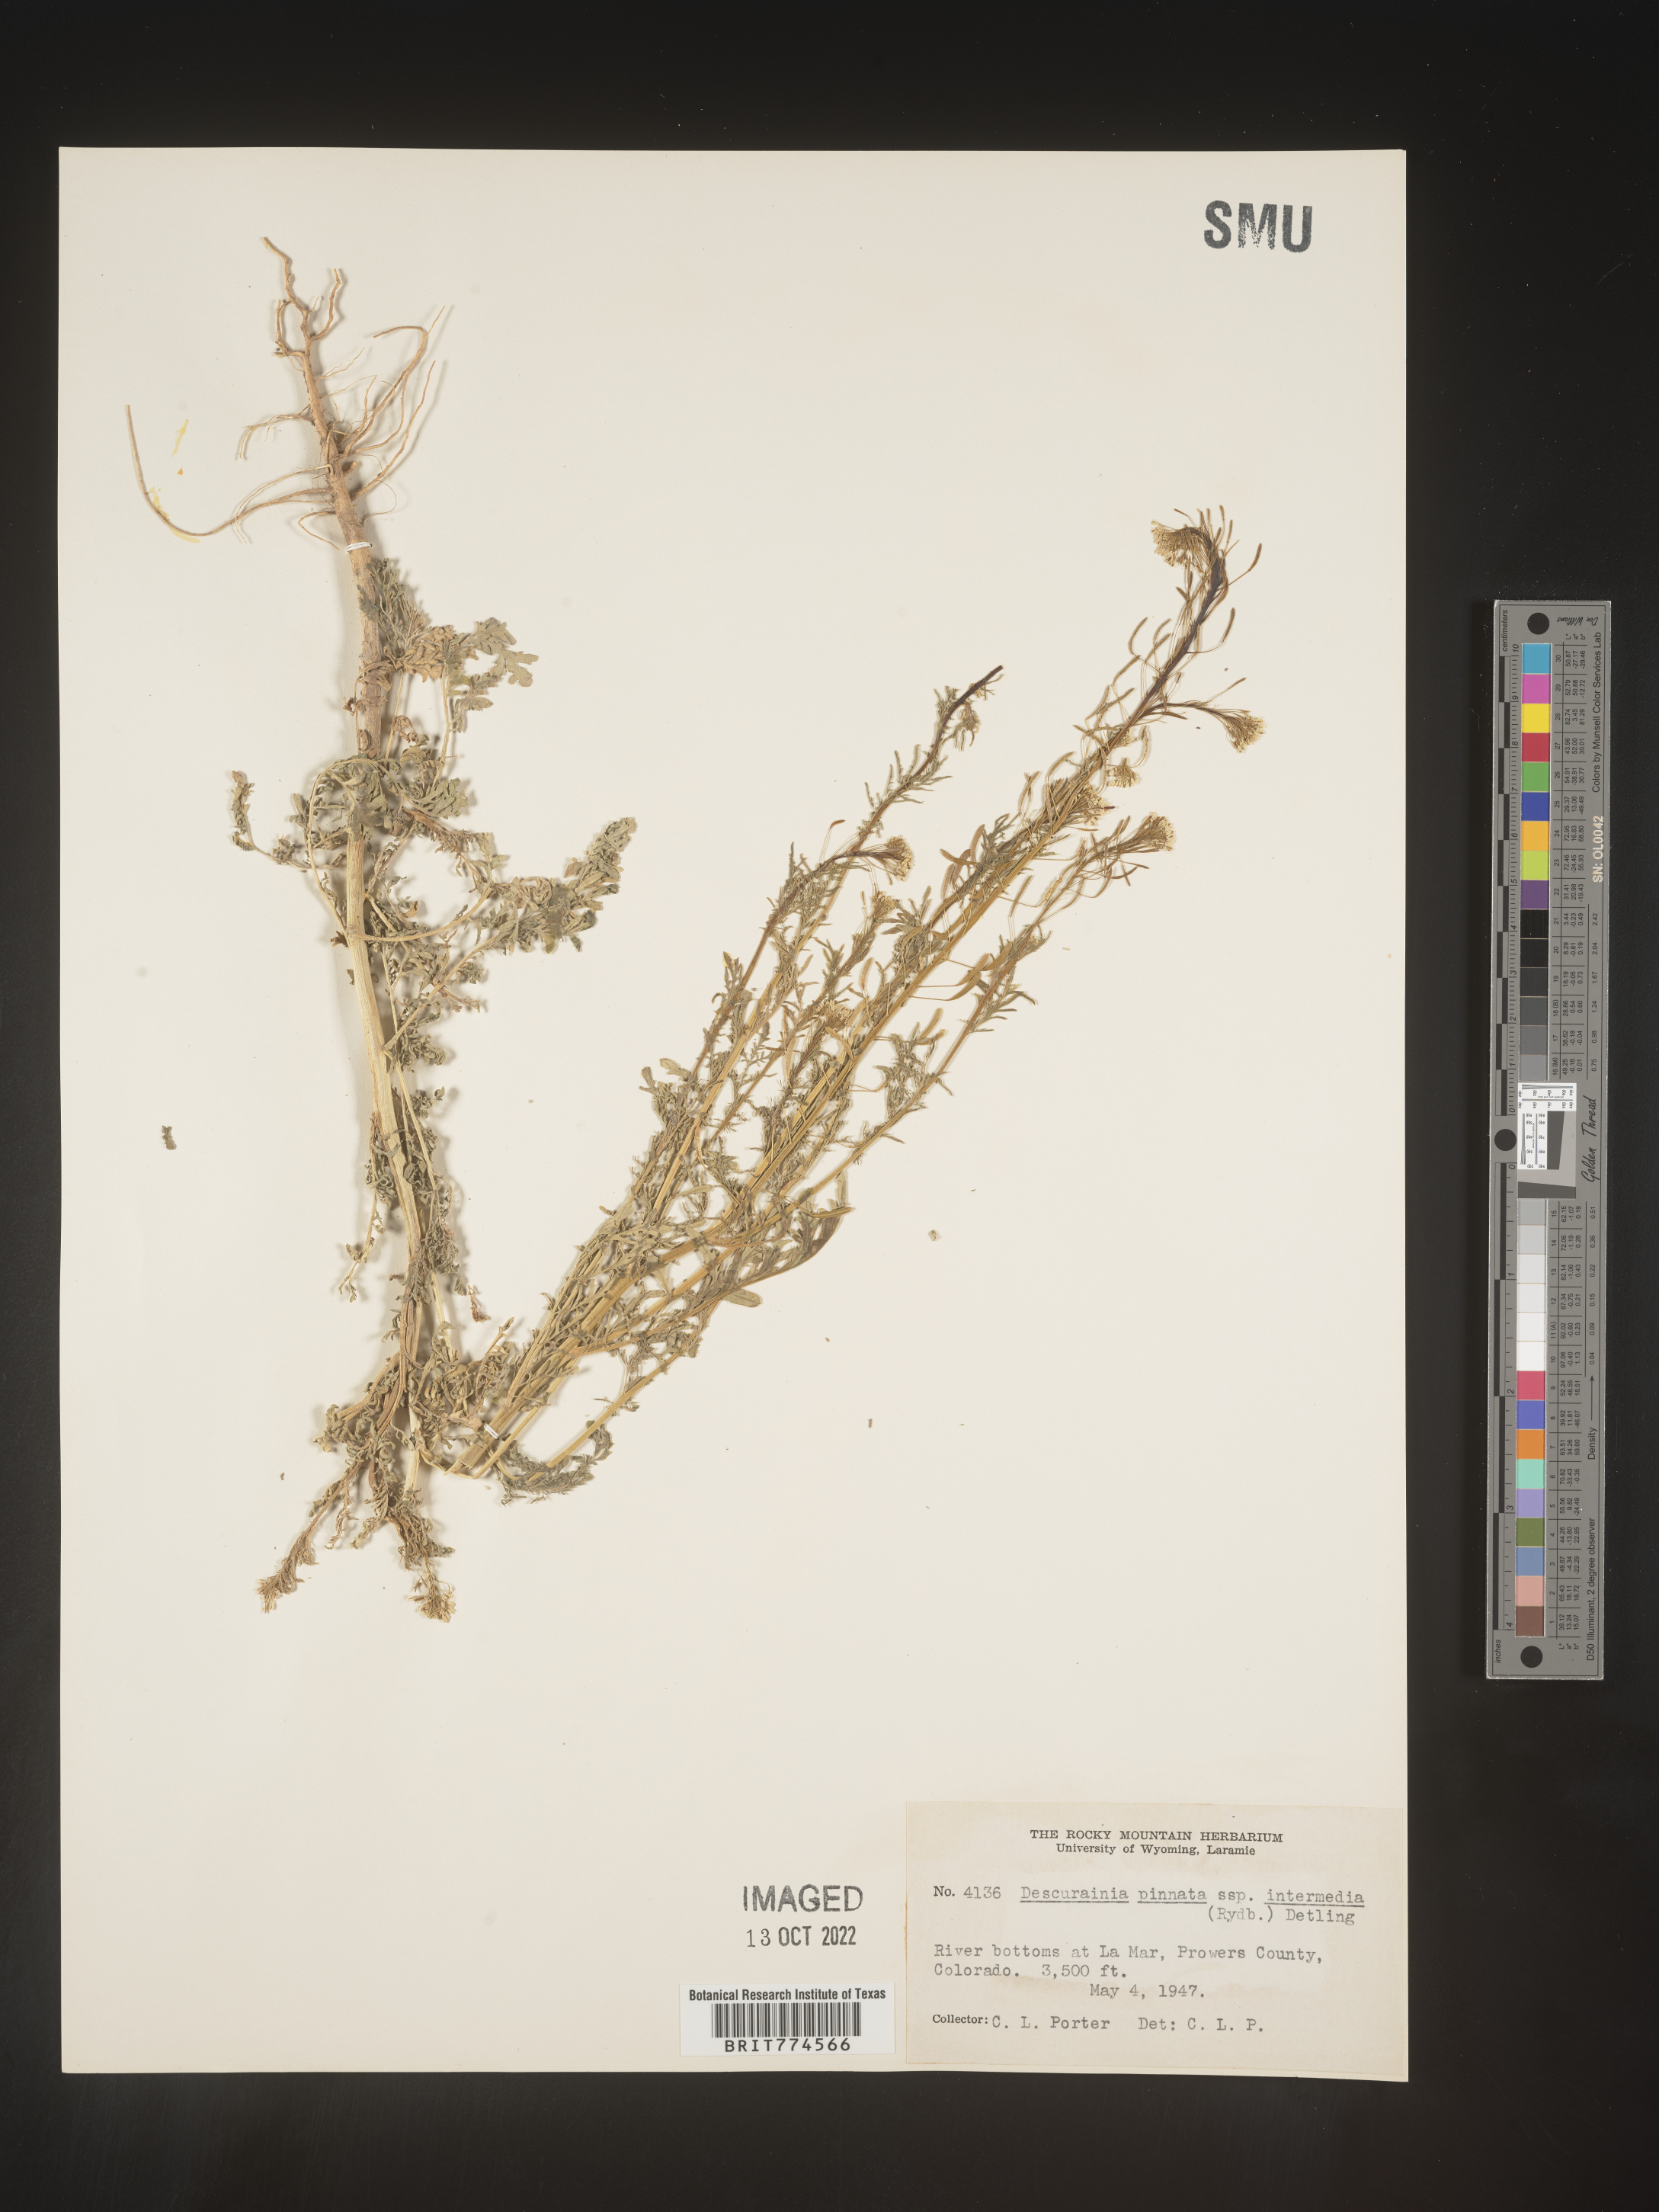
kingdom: Plantae
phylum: Tracheophyta
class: Magnoliopsida
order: Brassicales
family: Brassicaceae
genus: Descurainia
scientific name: Descurainia pinnata
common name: Western tansy mustard
